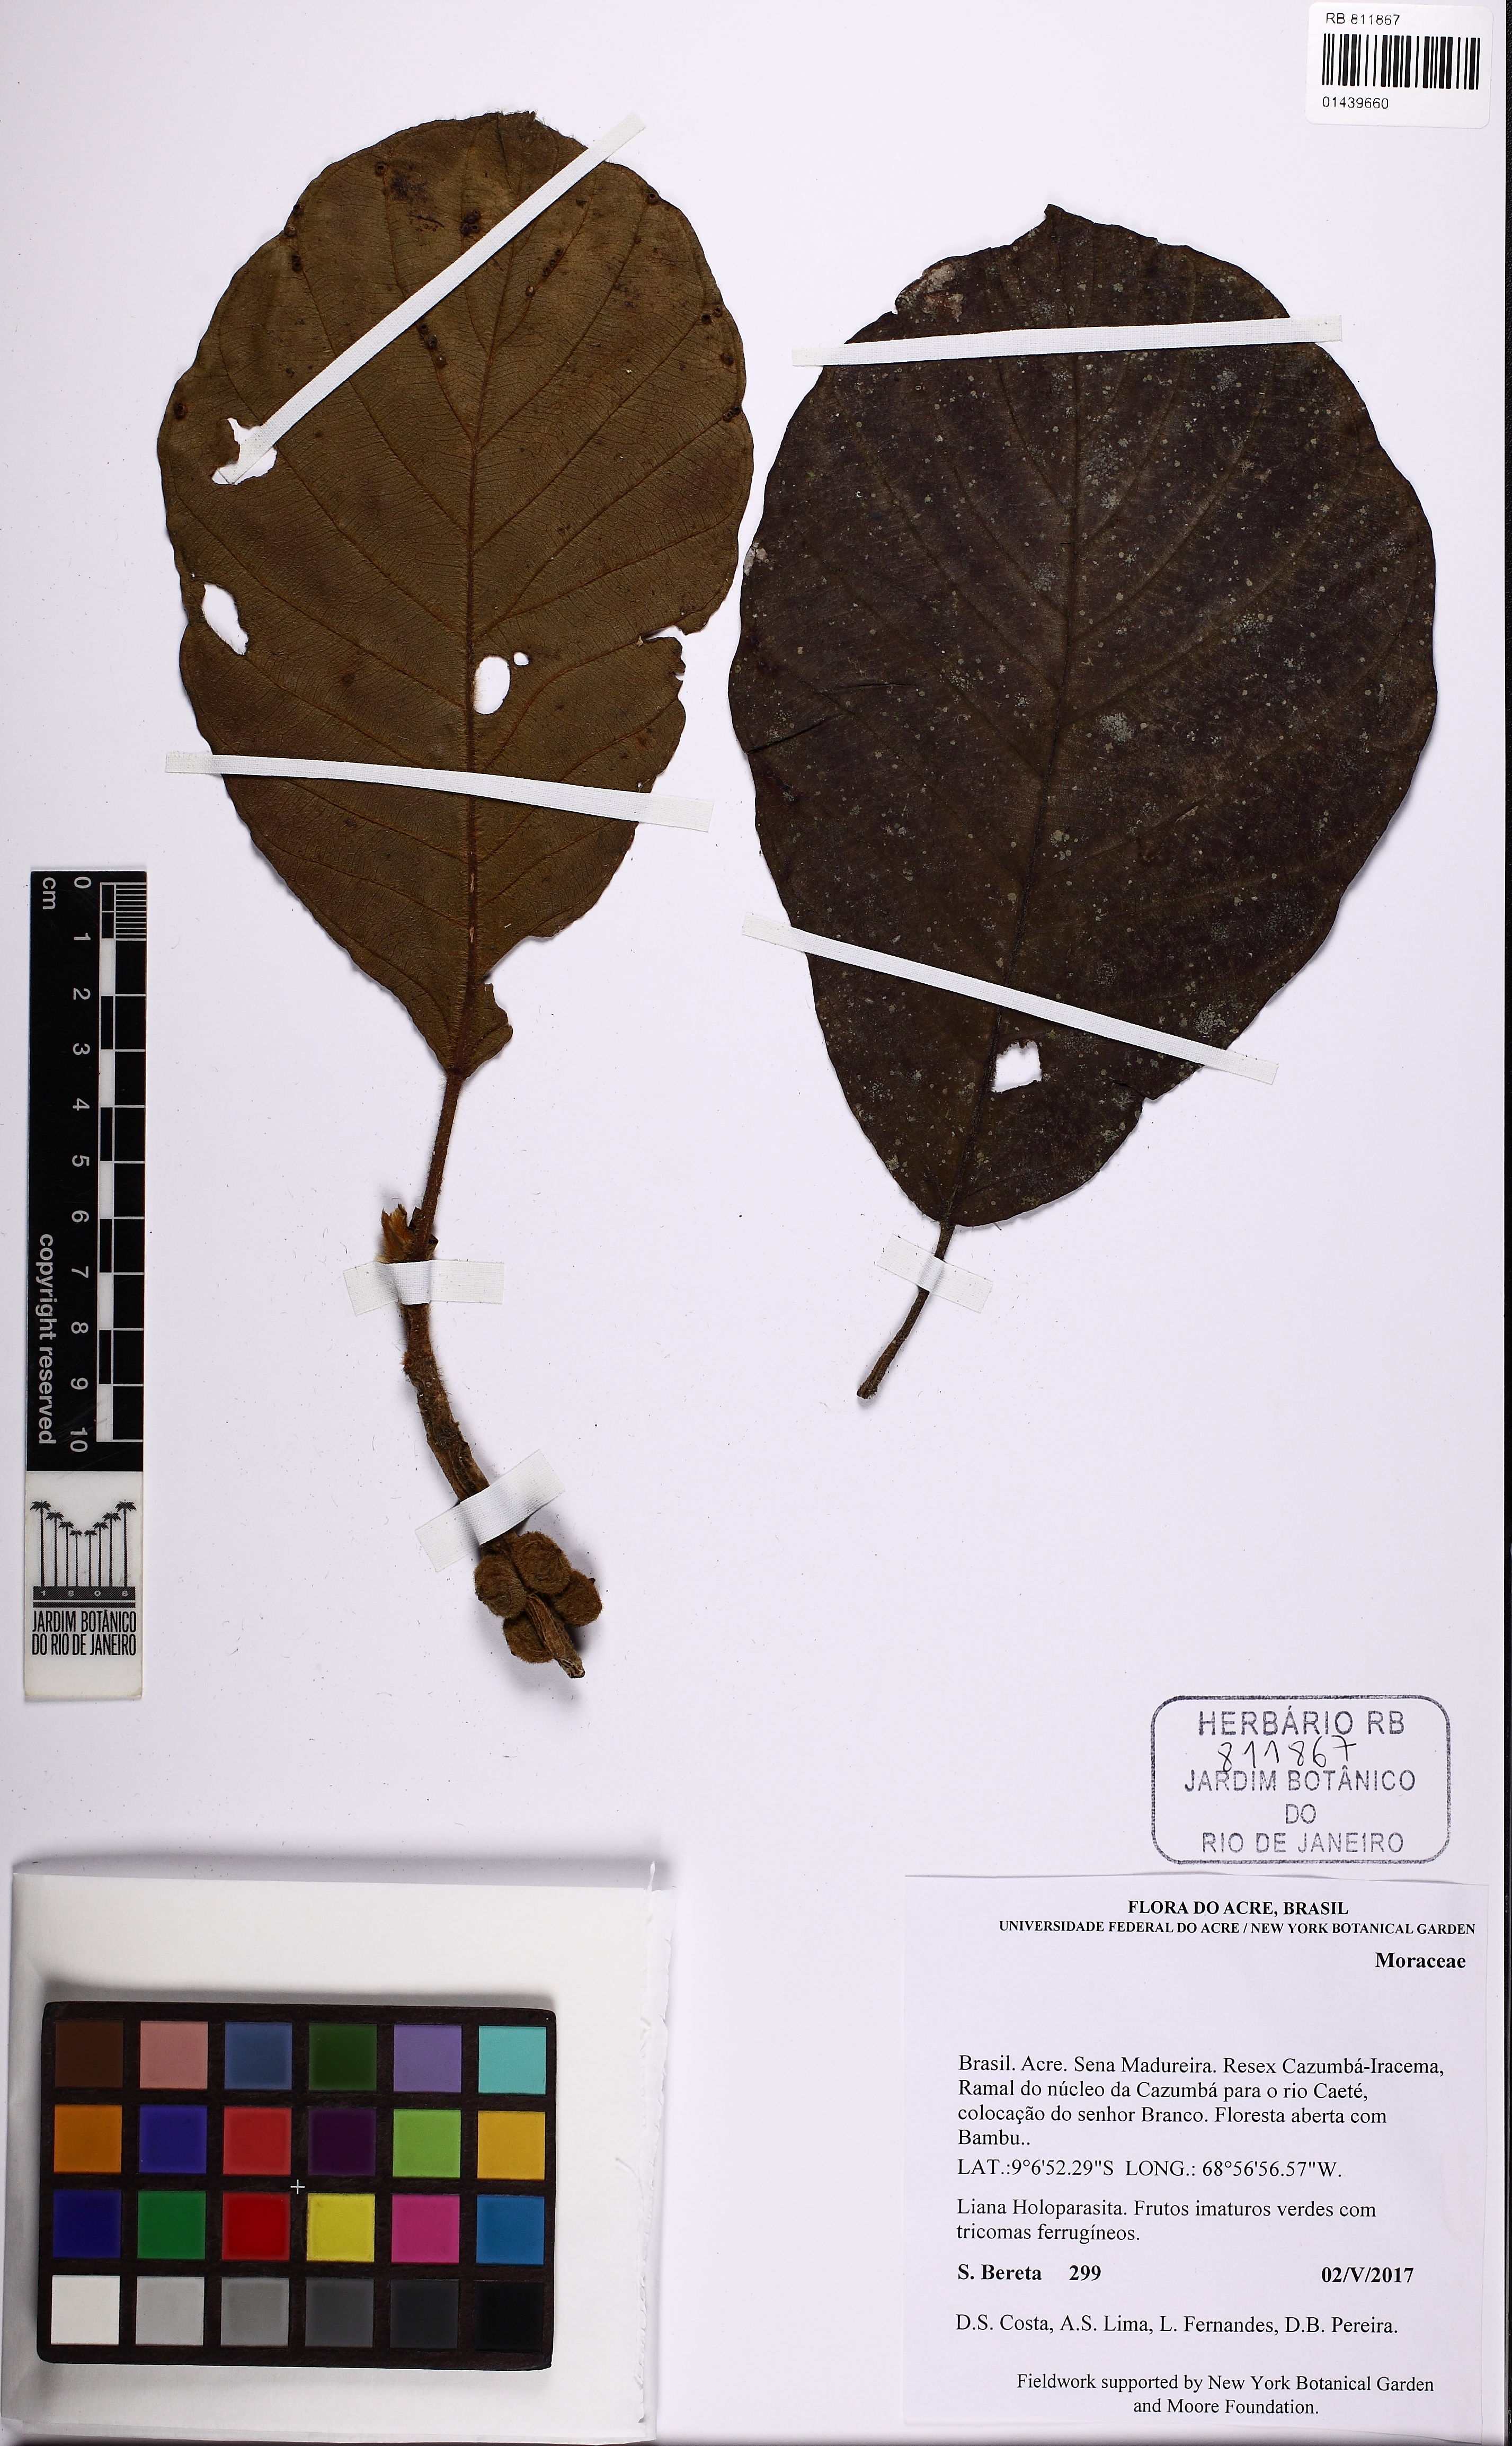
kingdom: Plantae
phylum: Tracheophyta
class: Magnoliopsida
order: Rosales
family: Moraceae
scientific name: Moraceae
